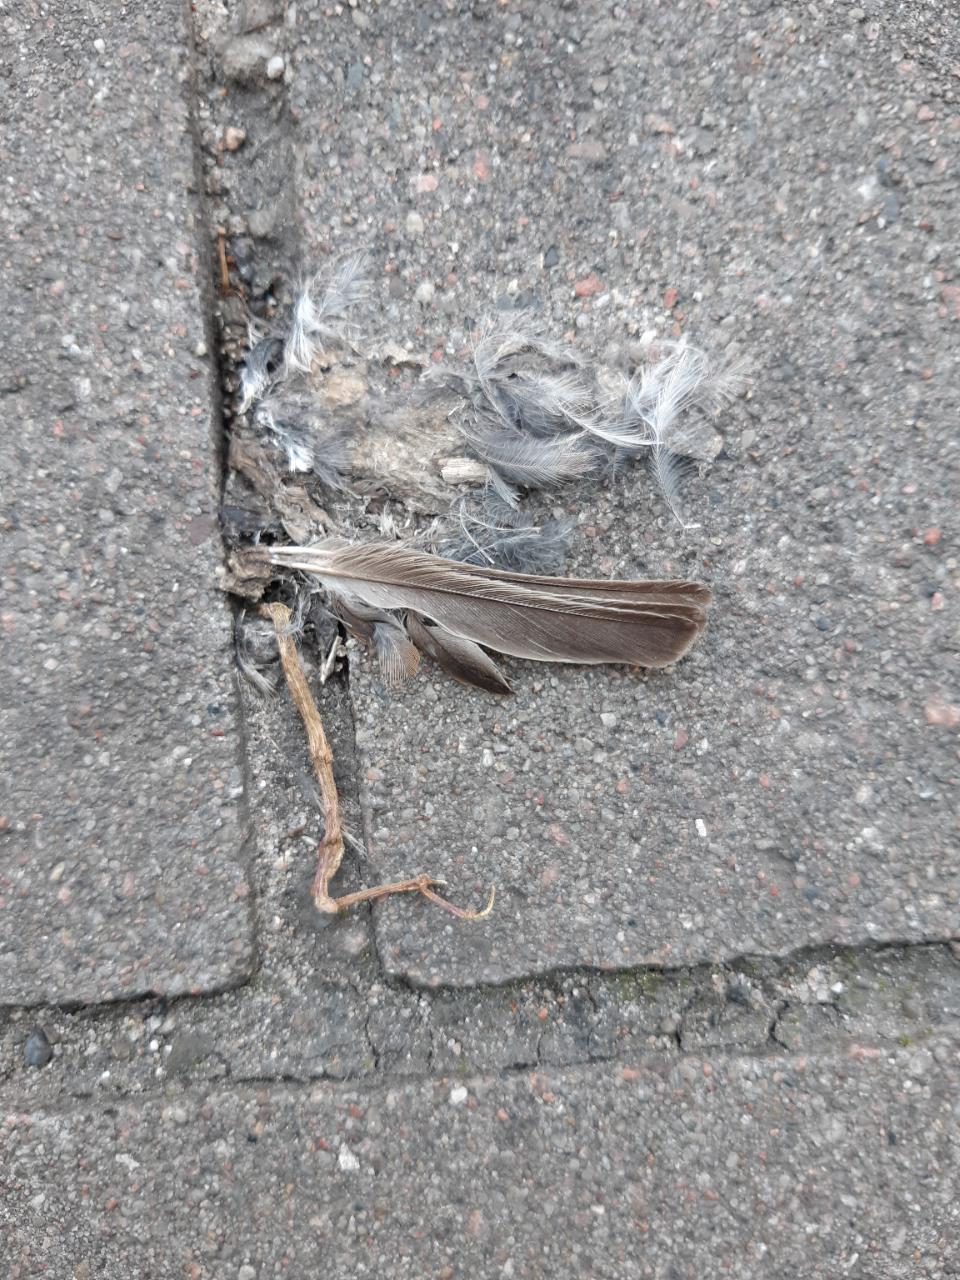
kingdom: Animalia
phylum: Chordata
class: Aves
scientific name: Aves
